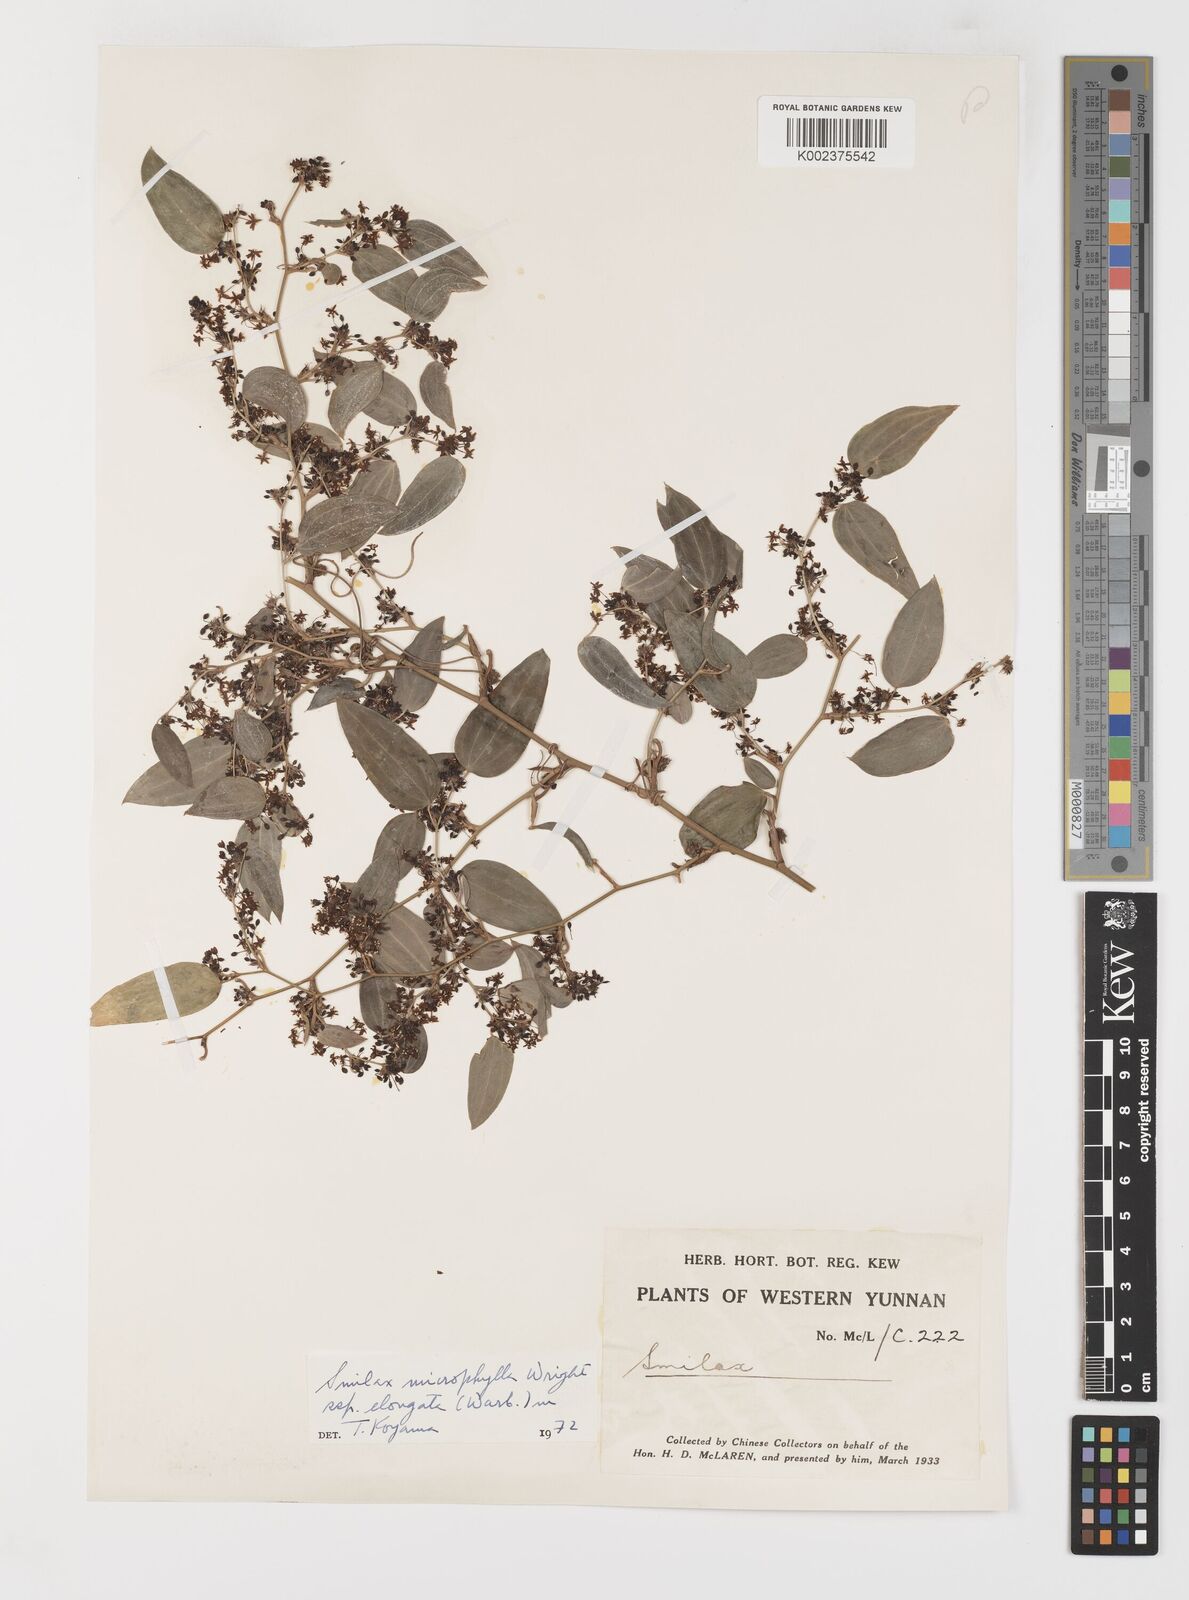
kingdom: Plantae
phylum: Tracheophyta
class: Liliopsida
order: Liliales
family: Smilacaceae
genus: Smilax
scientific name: Smilax lanceifolia
